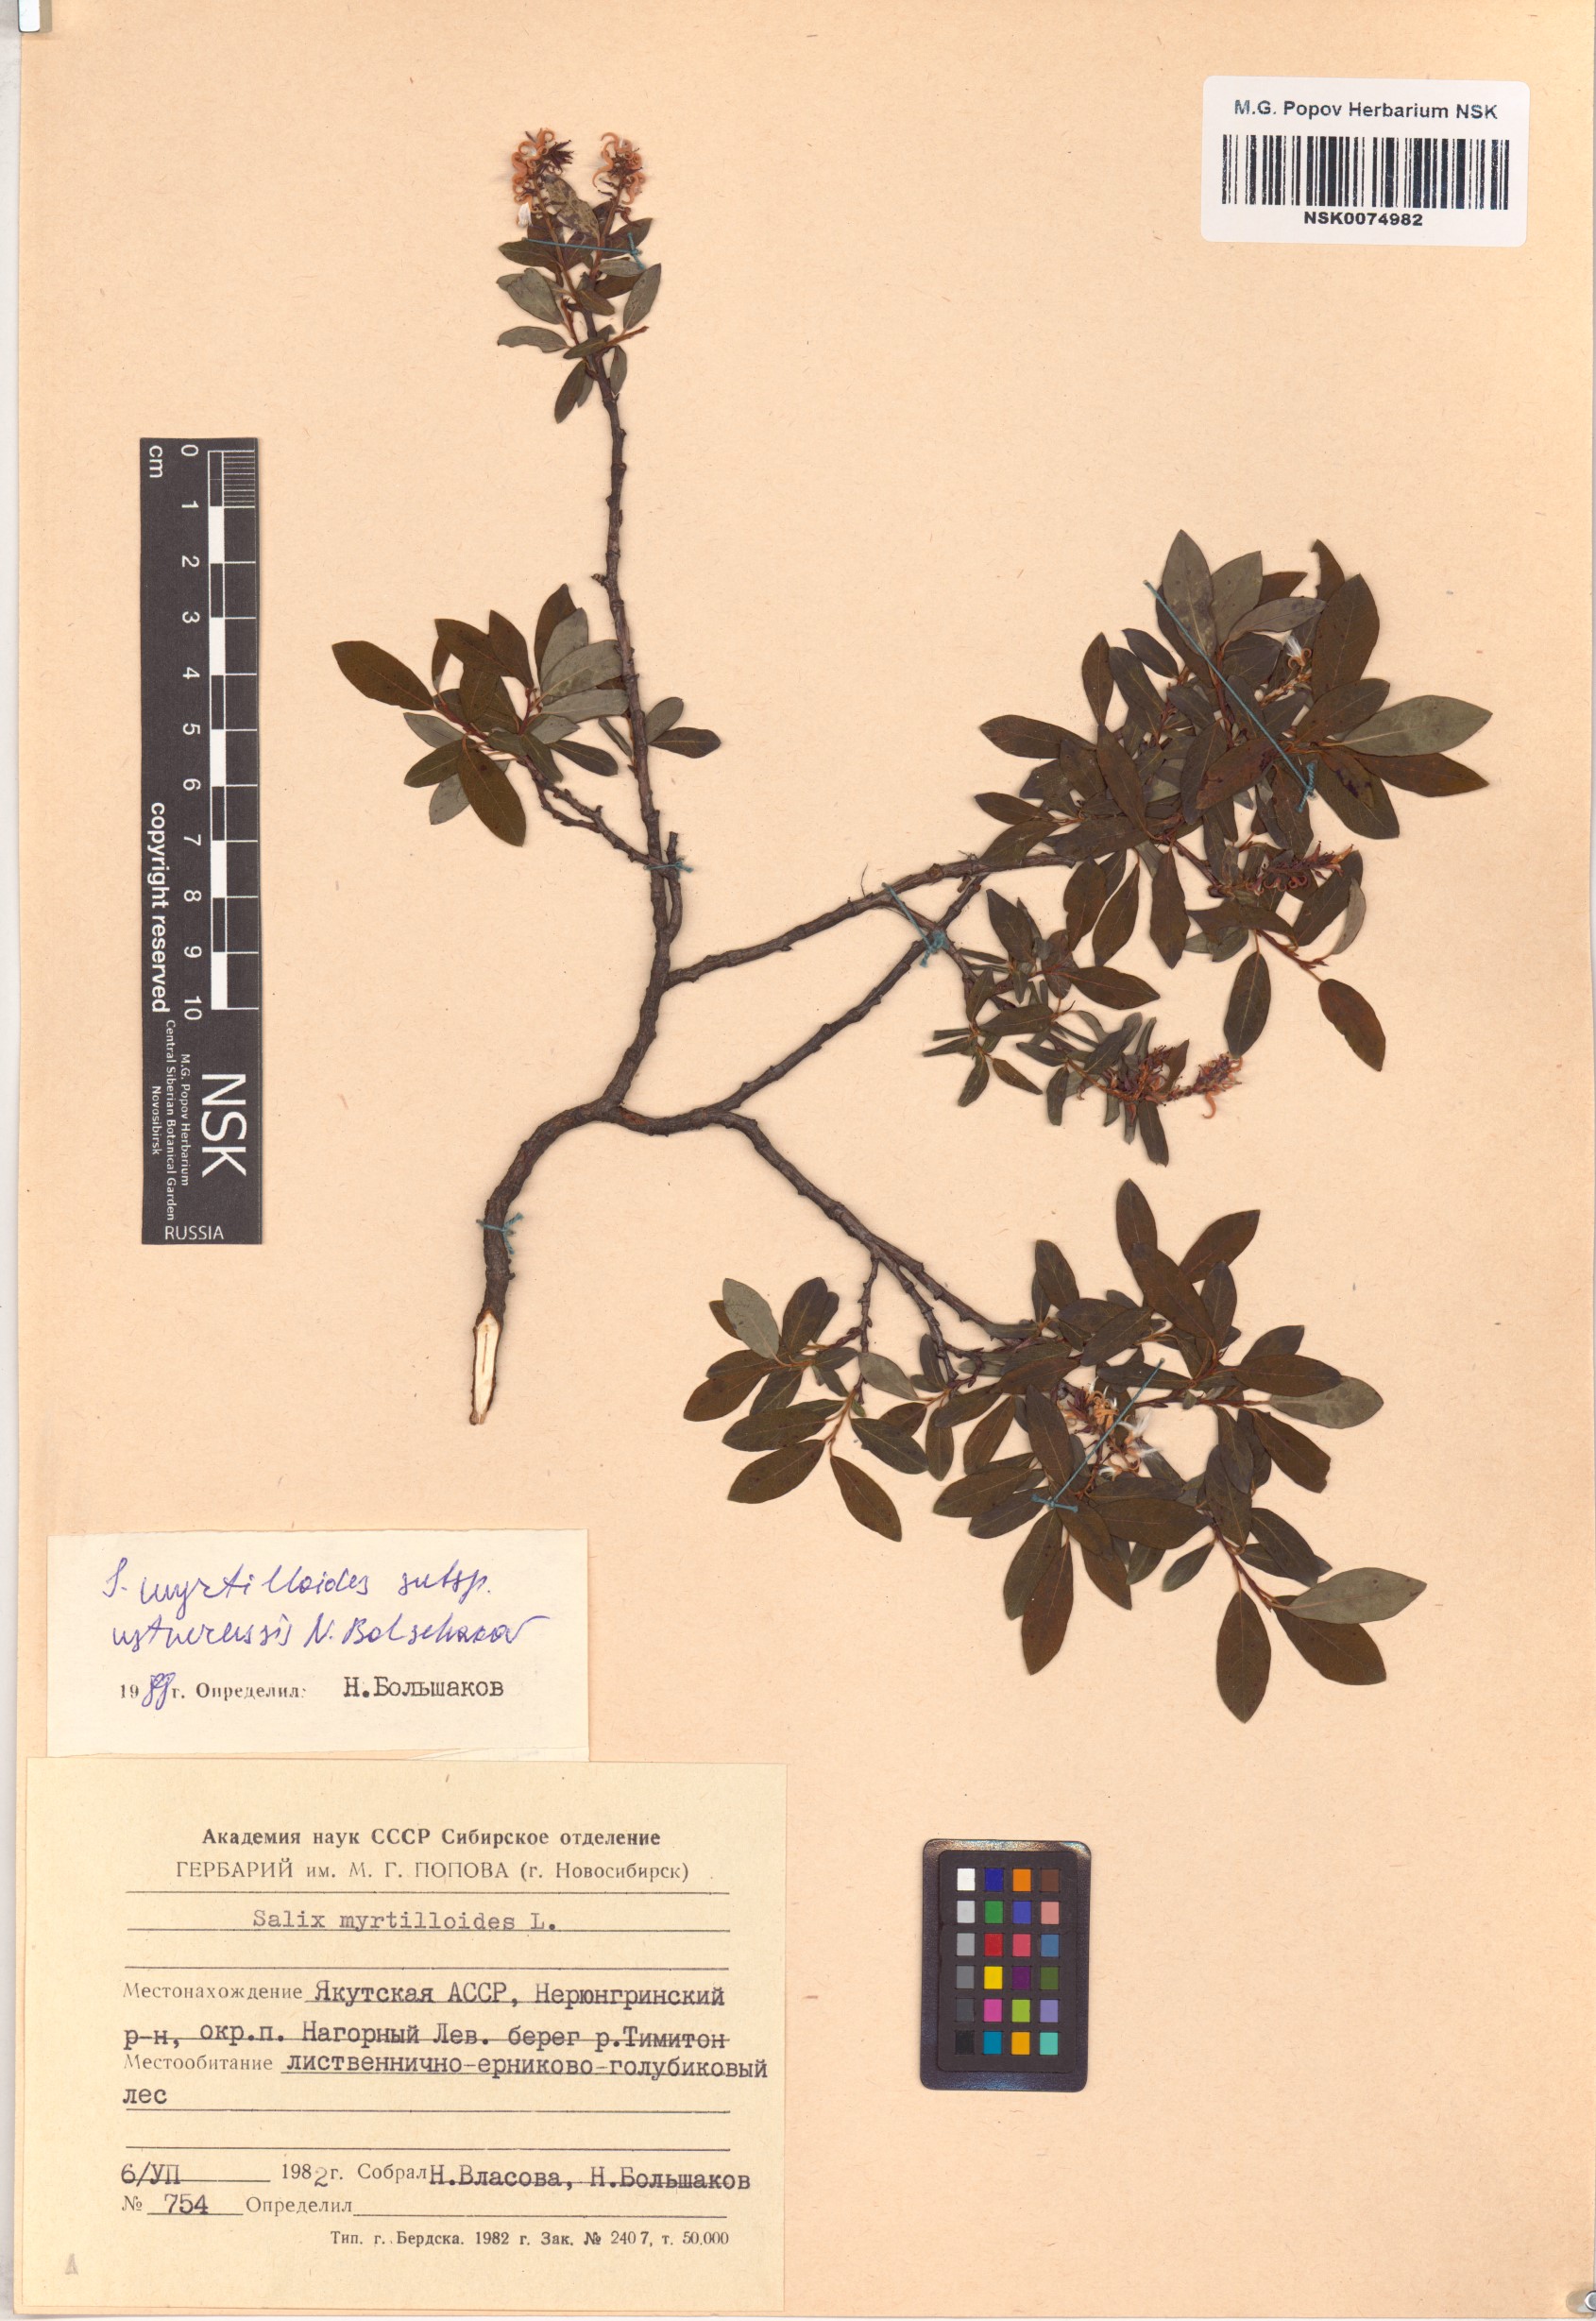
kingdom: Plantae
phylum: Tracheophyta
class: Magnoliopsida
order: Malpighiales
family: Salicaceae
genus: Salix
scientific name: Salix ustnerensis
